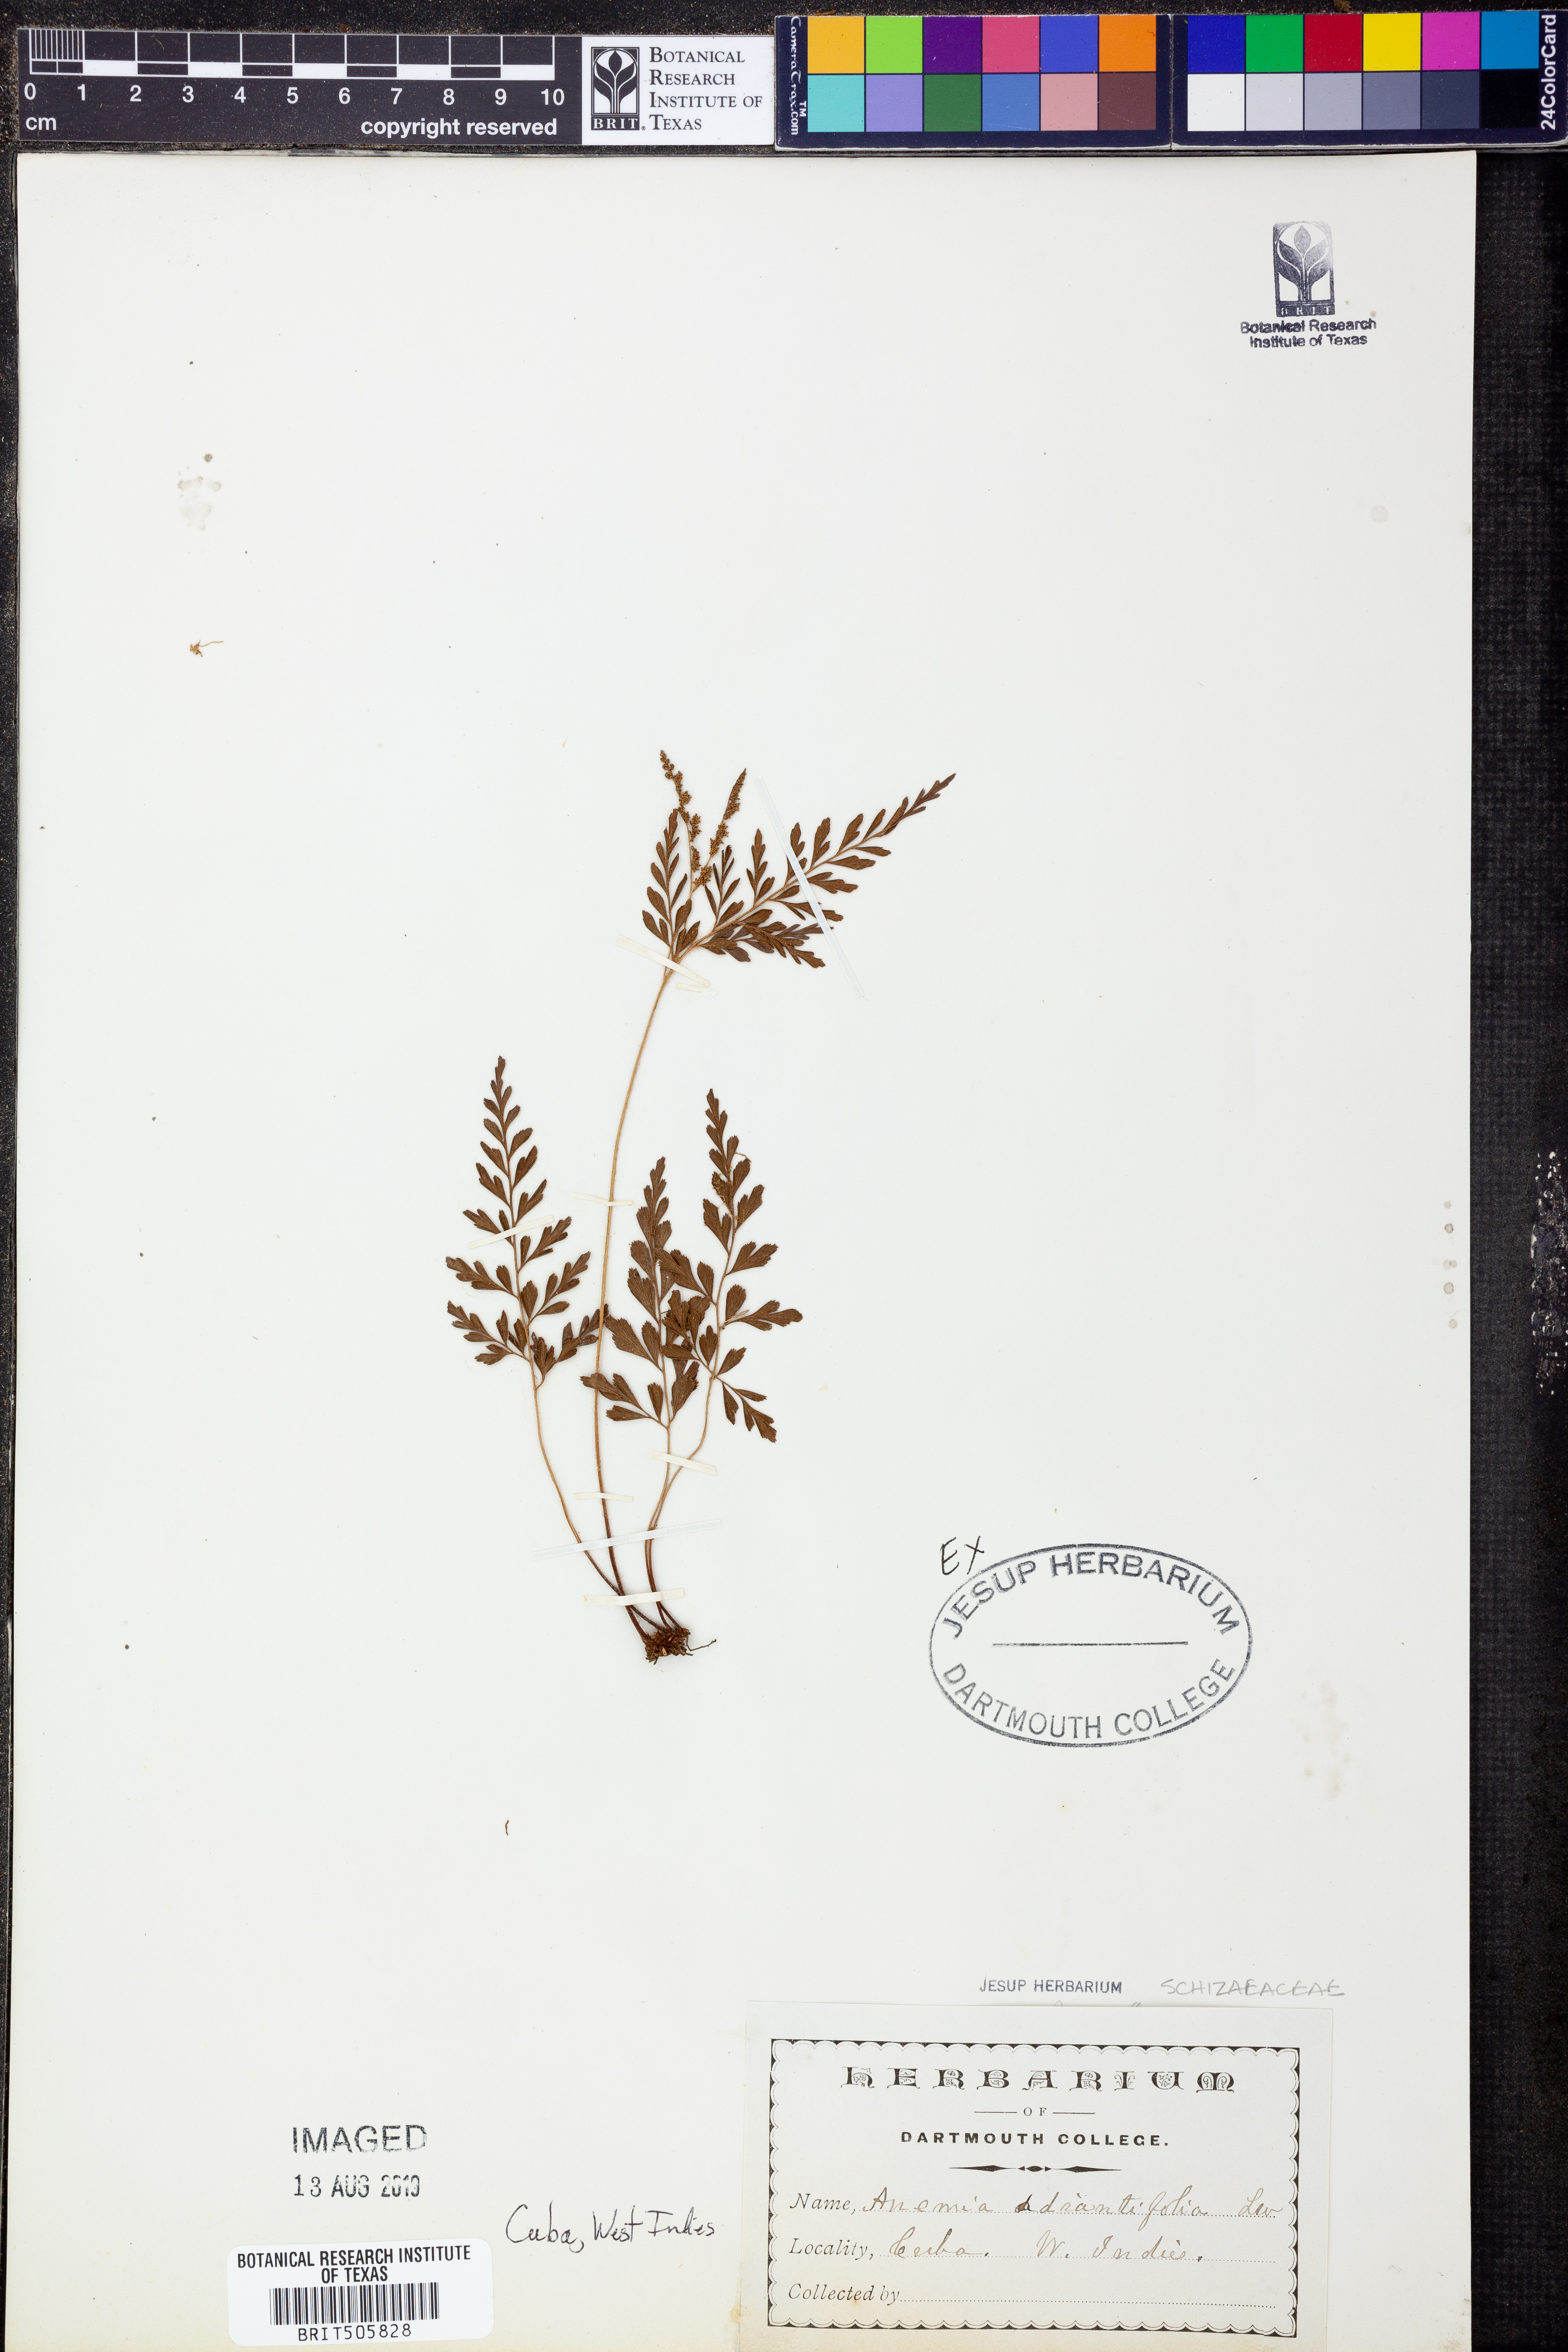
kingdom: Plantae
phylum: Tracheophyta
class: Polypodiopsida
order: Schizaeales
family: Anemiaceae
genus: Anemia
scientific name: Anemia adiantifolia
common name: Pine fern
